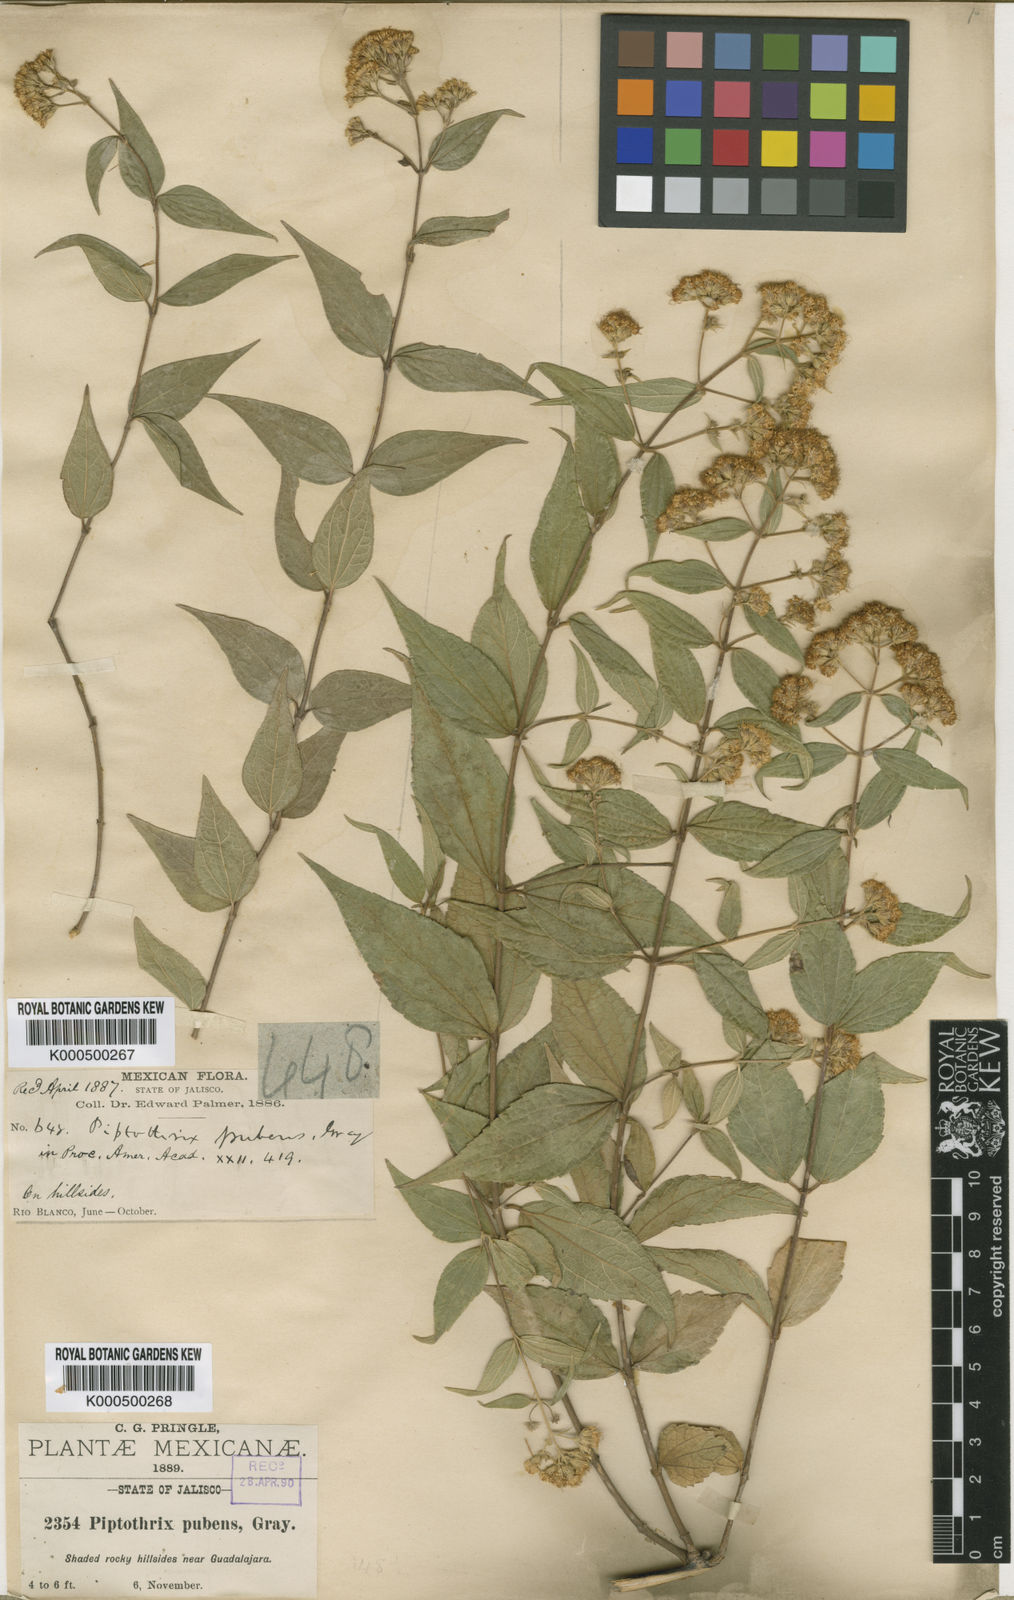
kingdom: Plantae
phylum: Tracheophyta
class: Magnoliopsida
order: Asterales
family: Asteraceae
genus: Ageratina
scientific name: Ageratina palmeri
